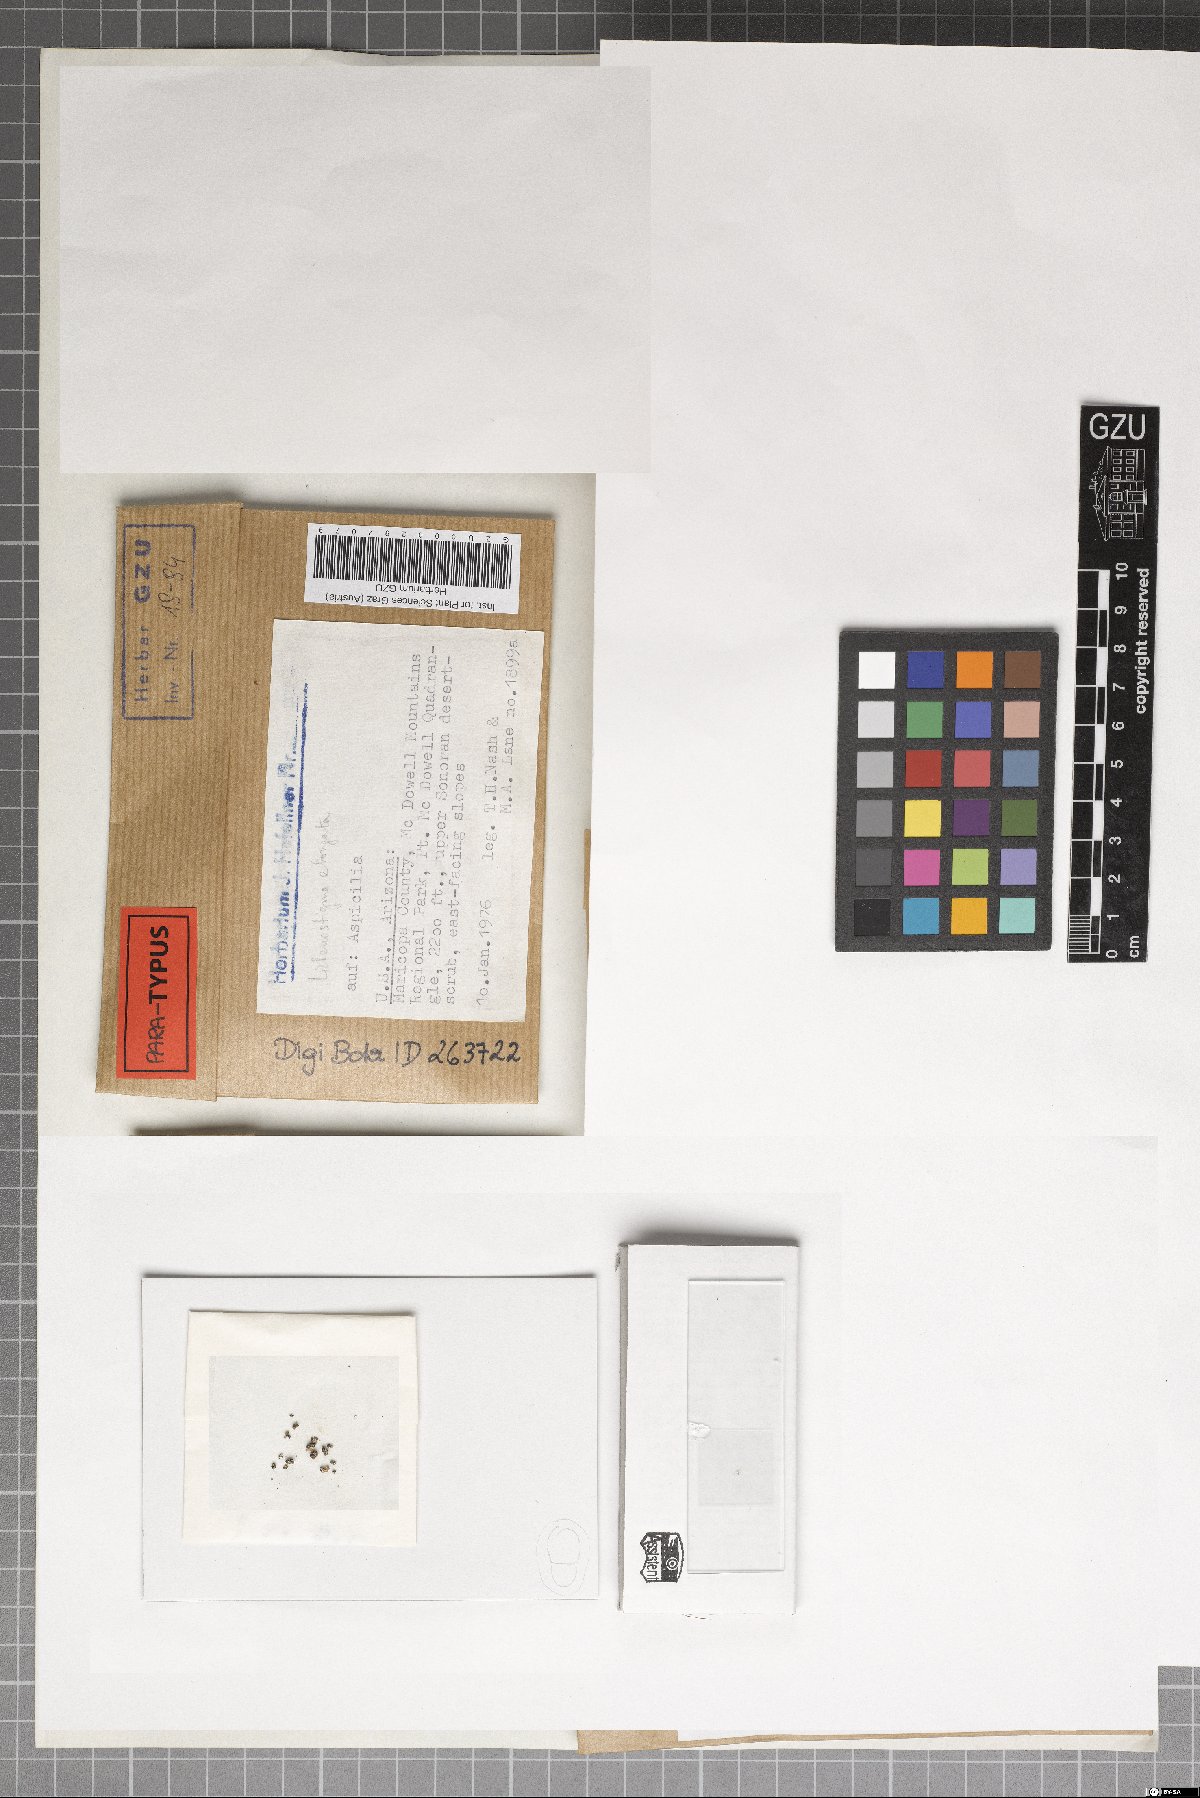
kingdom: Fungi
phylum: Ascomycota
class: Arthoniomycetes
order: Lichenostigmatales
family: Phaeococcomycetaceae
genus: Lichenostigma
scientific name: Lichenostigma elongatum
